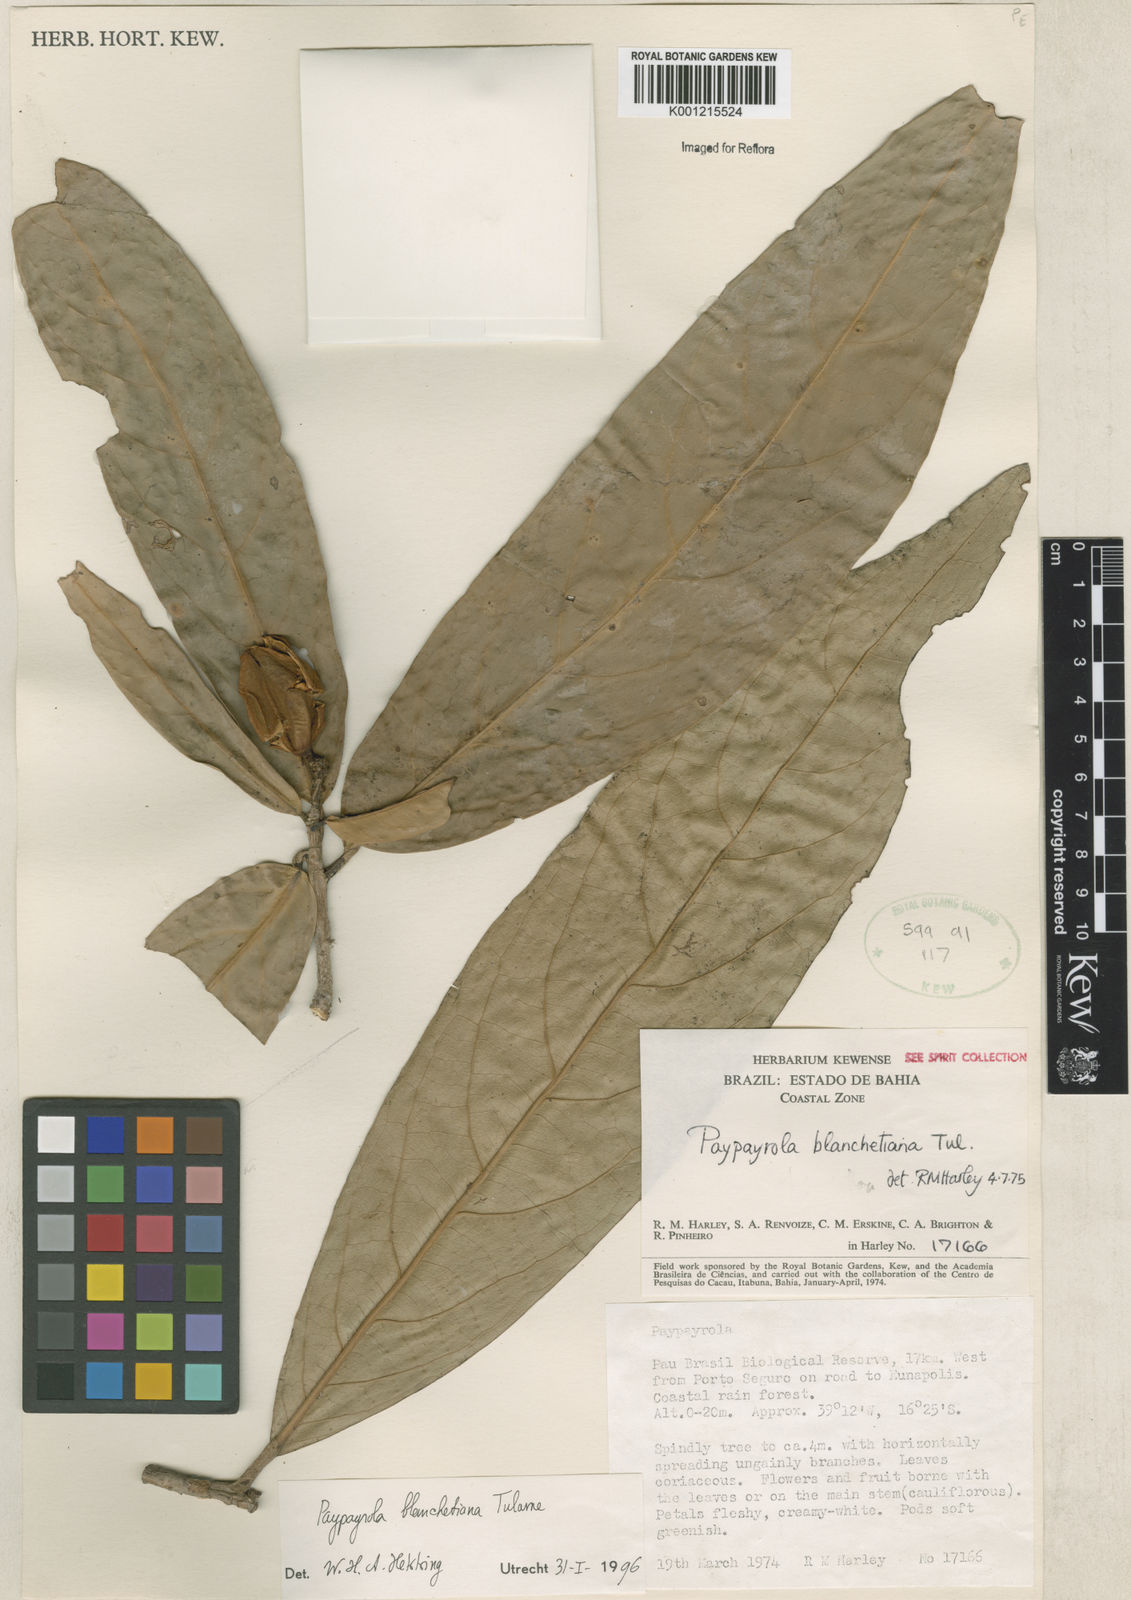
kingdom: Plantae
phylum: Tracheophyta
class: Magnoliopsida
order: Malpighiales
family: Violaceae
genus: Paypayrola
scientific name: Paypayrola blanchetiana
